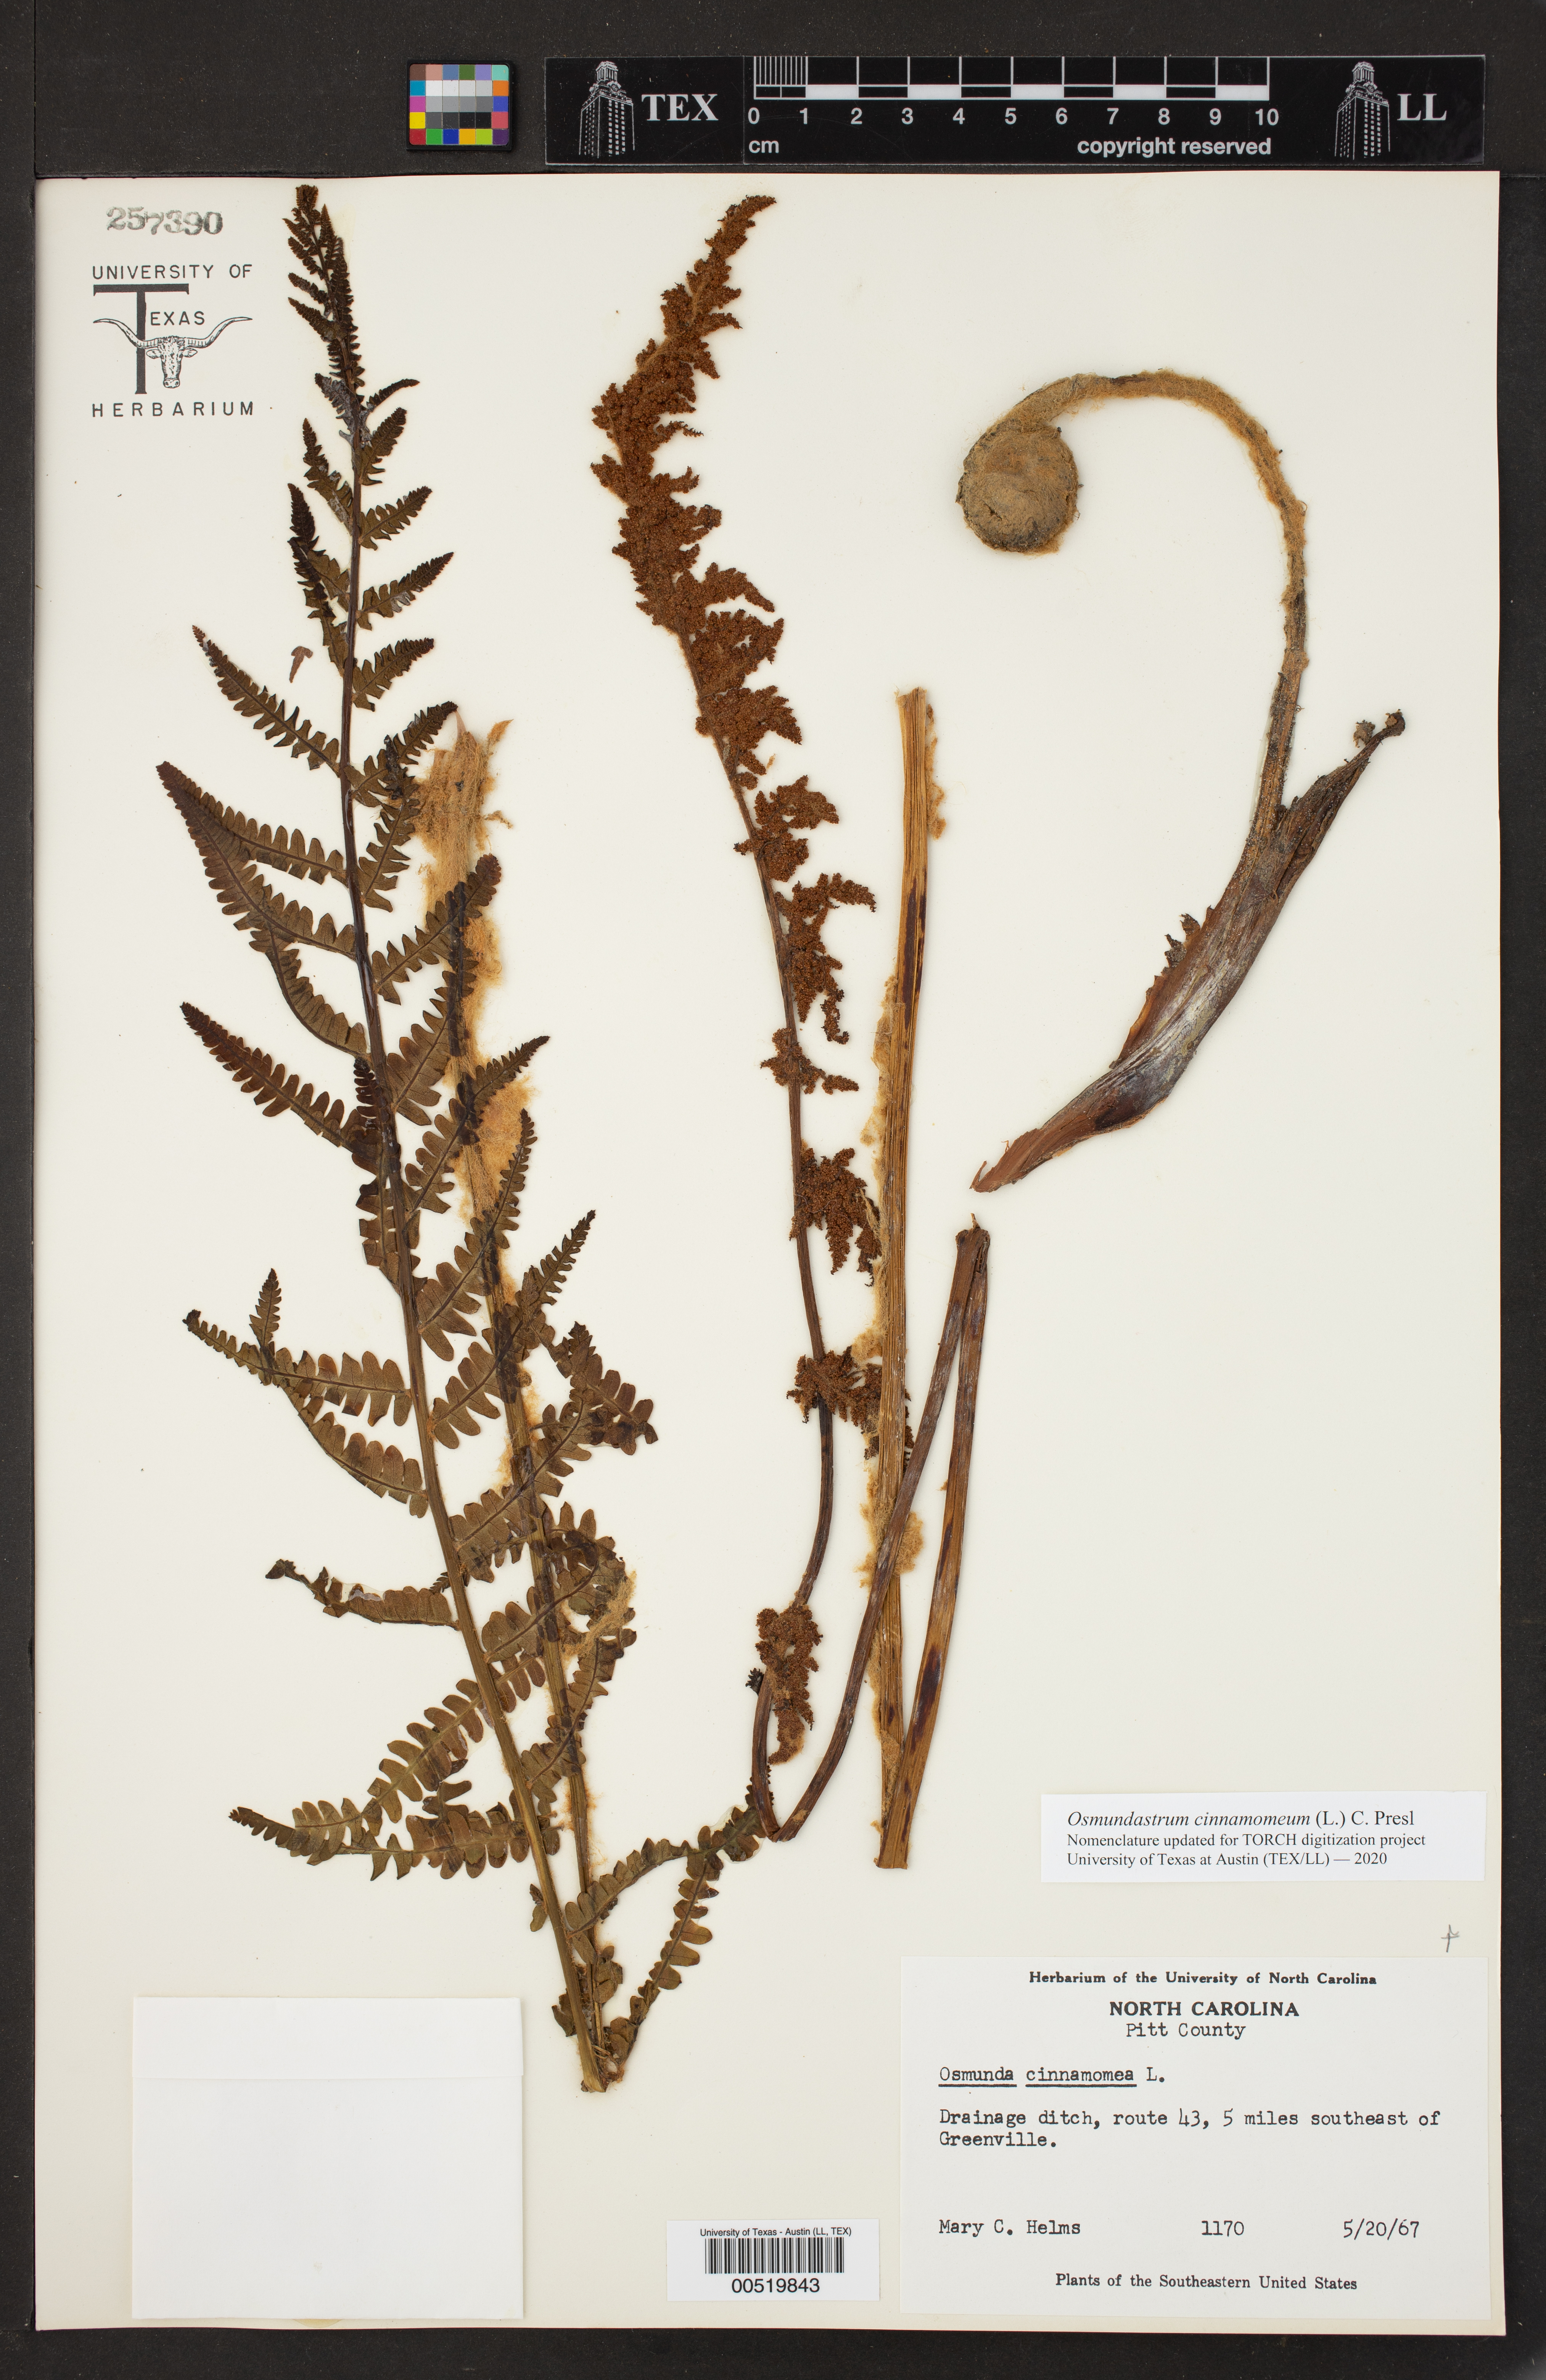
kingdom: Plantae
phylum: Tracheophyta
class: Polypodiopsida
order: Osmundales
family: Osmundaceae
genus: Osmundastrum
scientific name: Osmundastrum cinnamomeum
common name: Cinnamon fern
